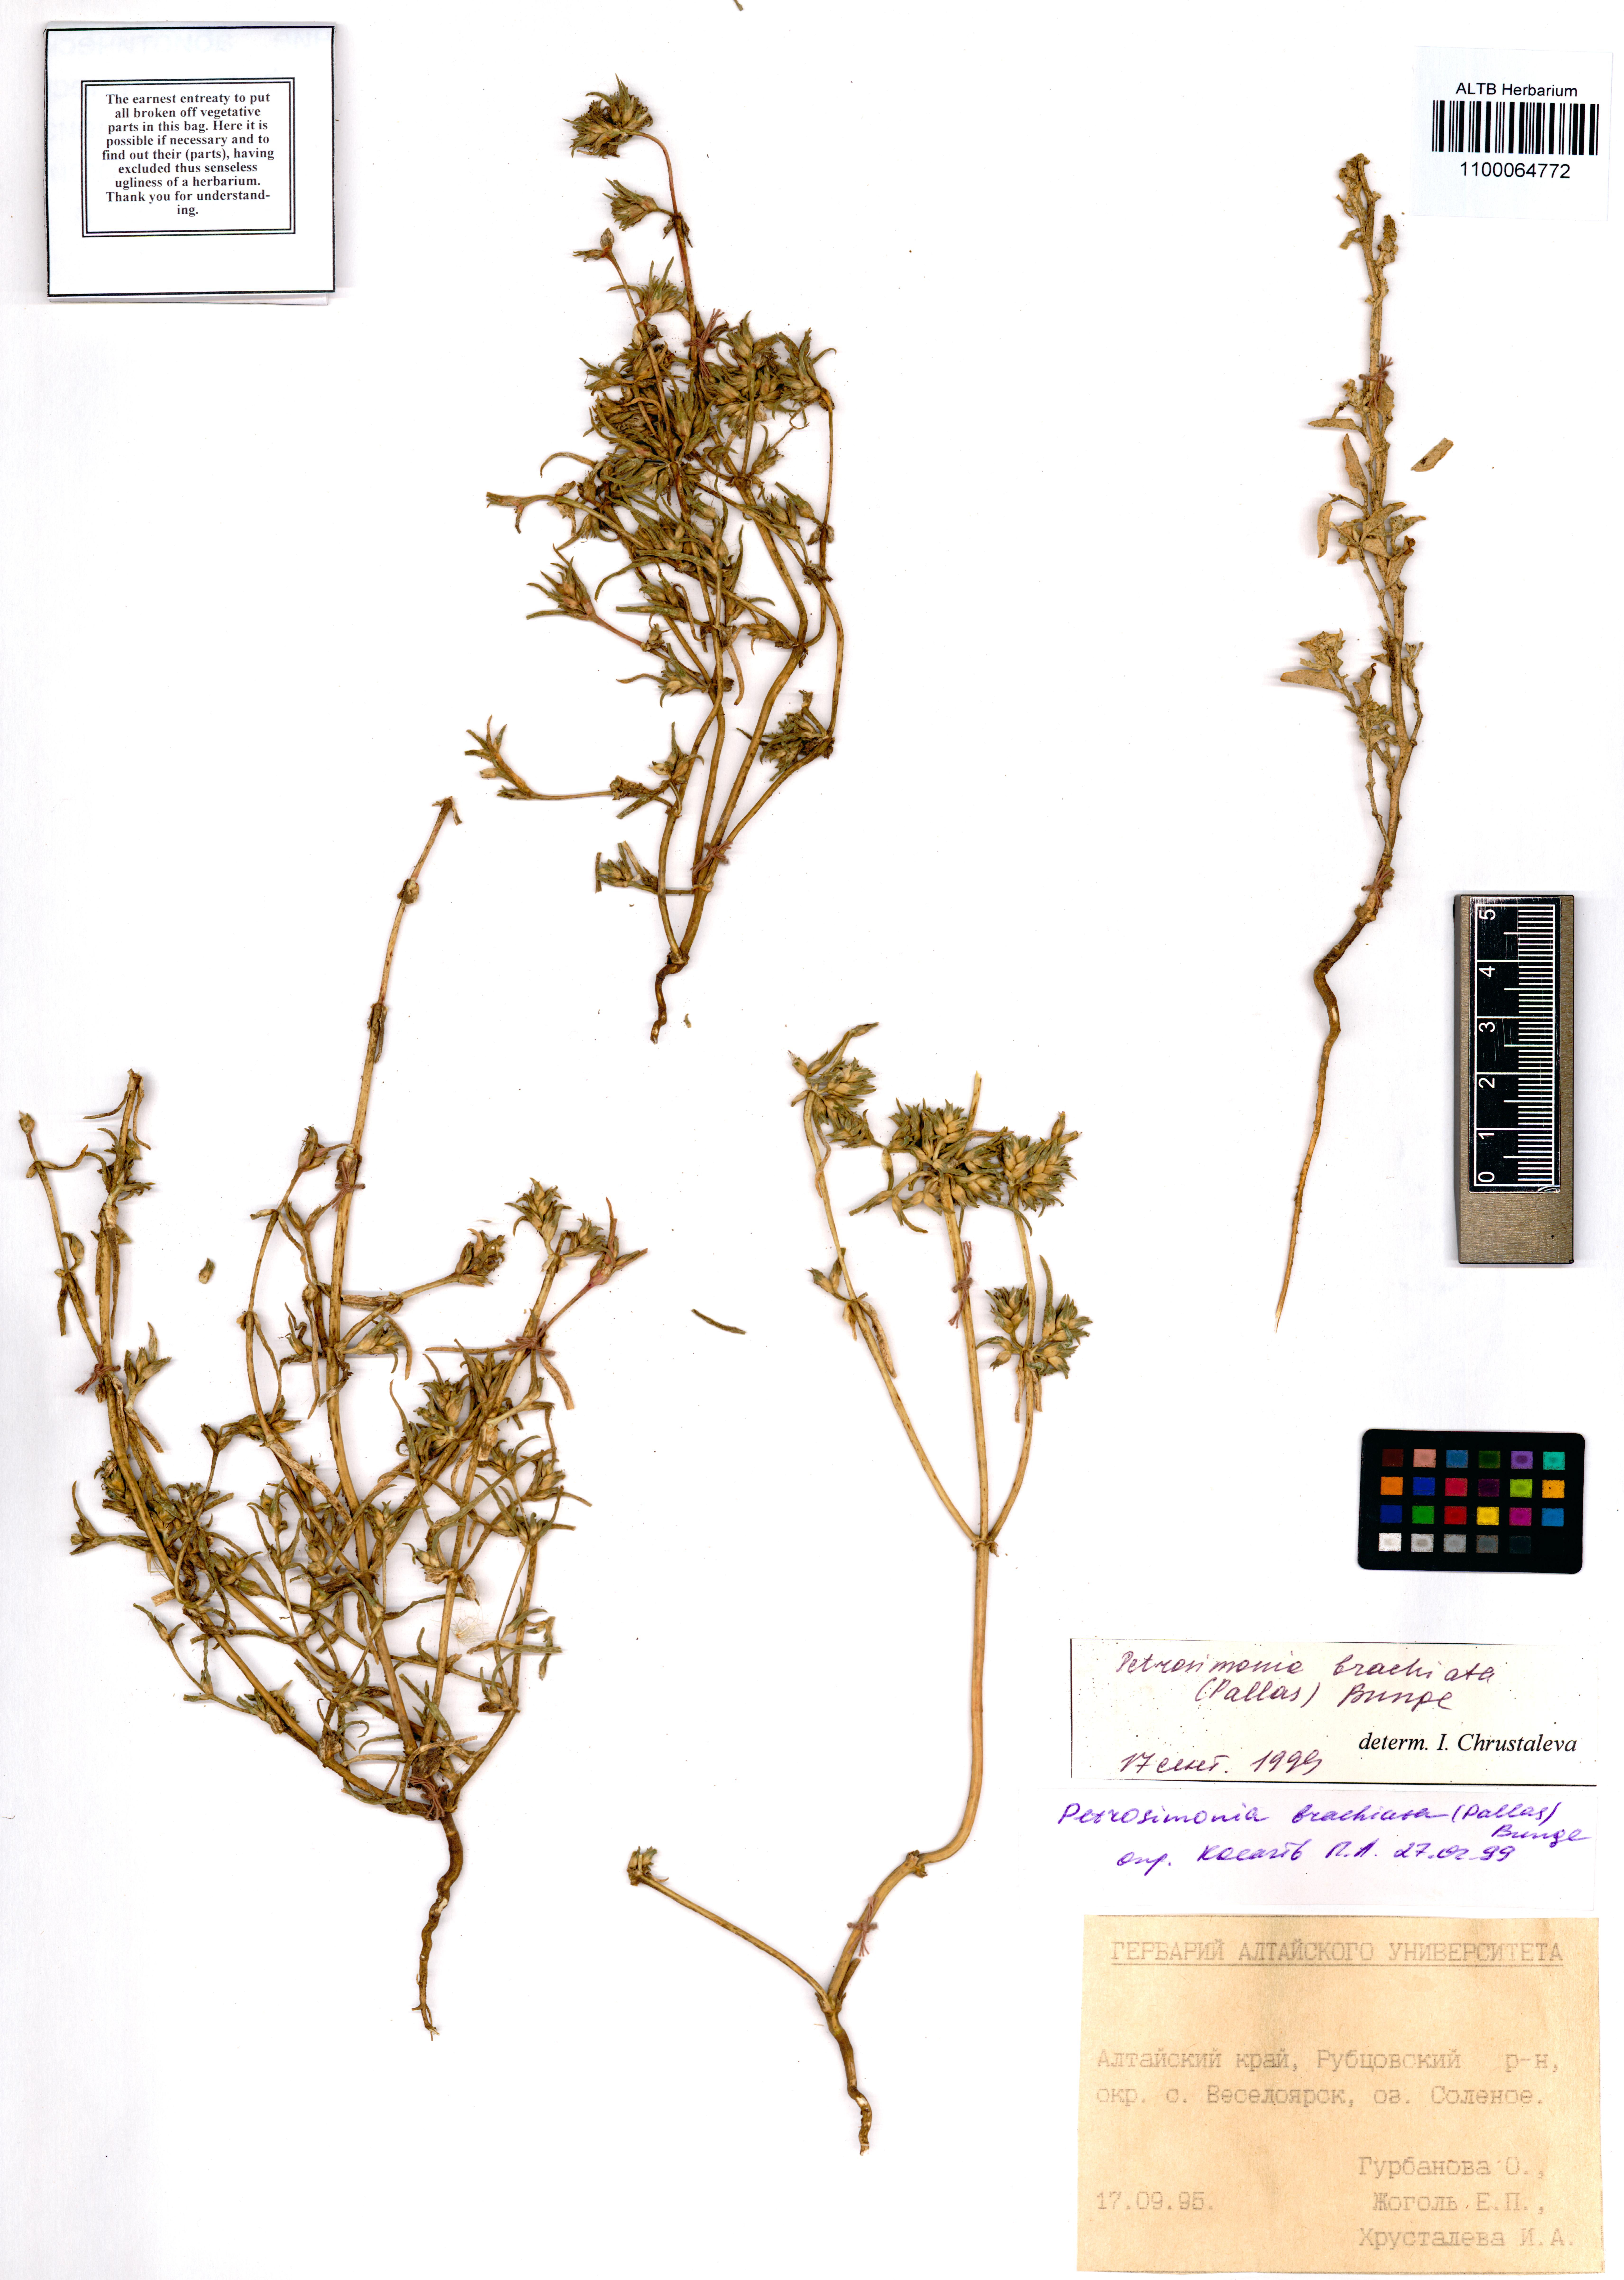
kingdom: Plantae
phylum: Tracheophyta
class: Magnoliopsida
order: Caryophyllales
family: Amaranthaceae
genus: Petrosimonia
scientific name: Petrosimonia brachiata
